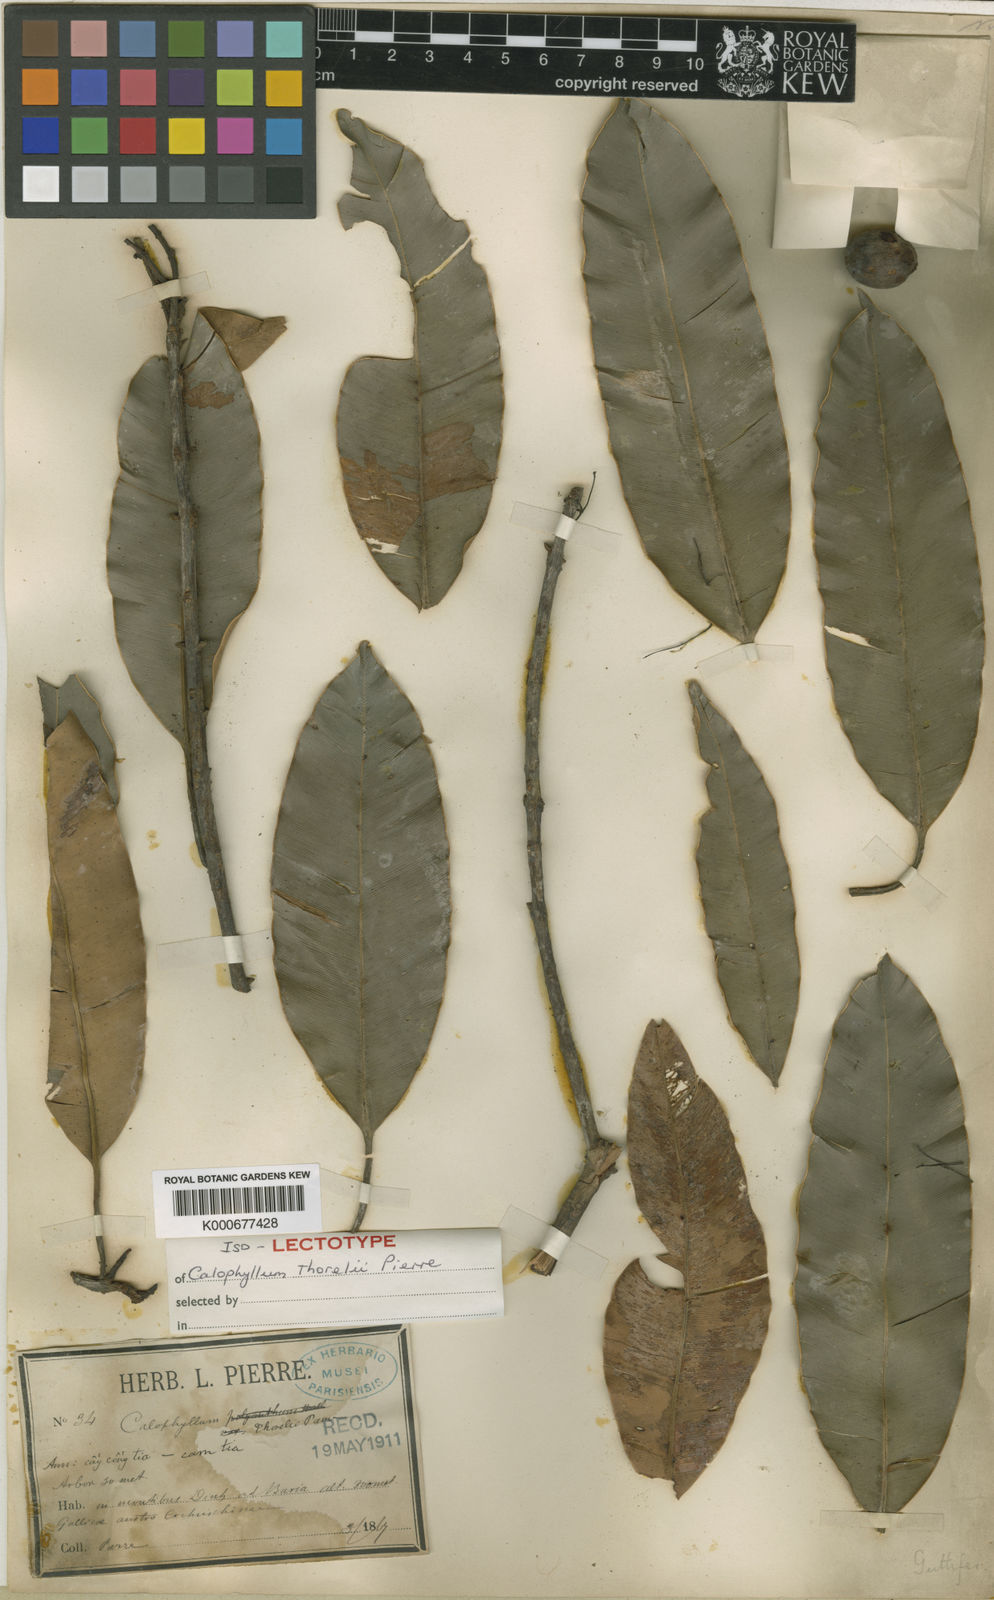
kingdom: Plantae
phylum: Tracheophyta
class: Magnoliopsida
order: Malpighiales
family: Calophyllaceae
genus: Calophyllum
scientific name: Calophyllum thorelii
